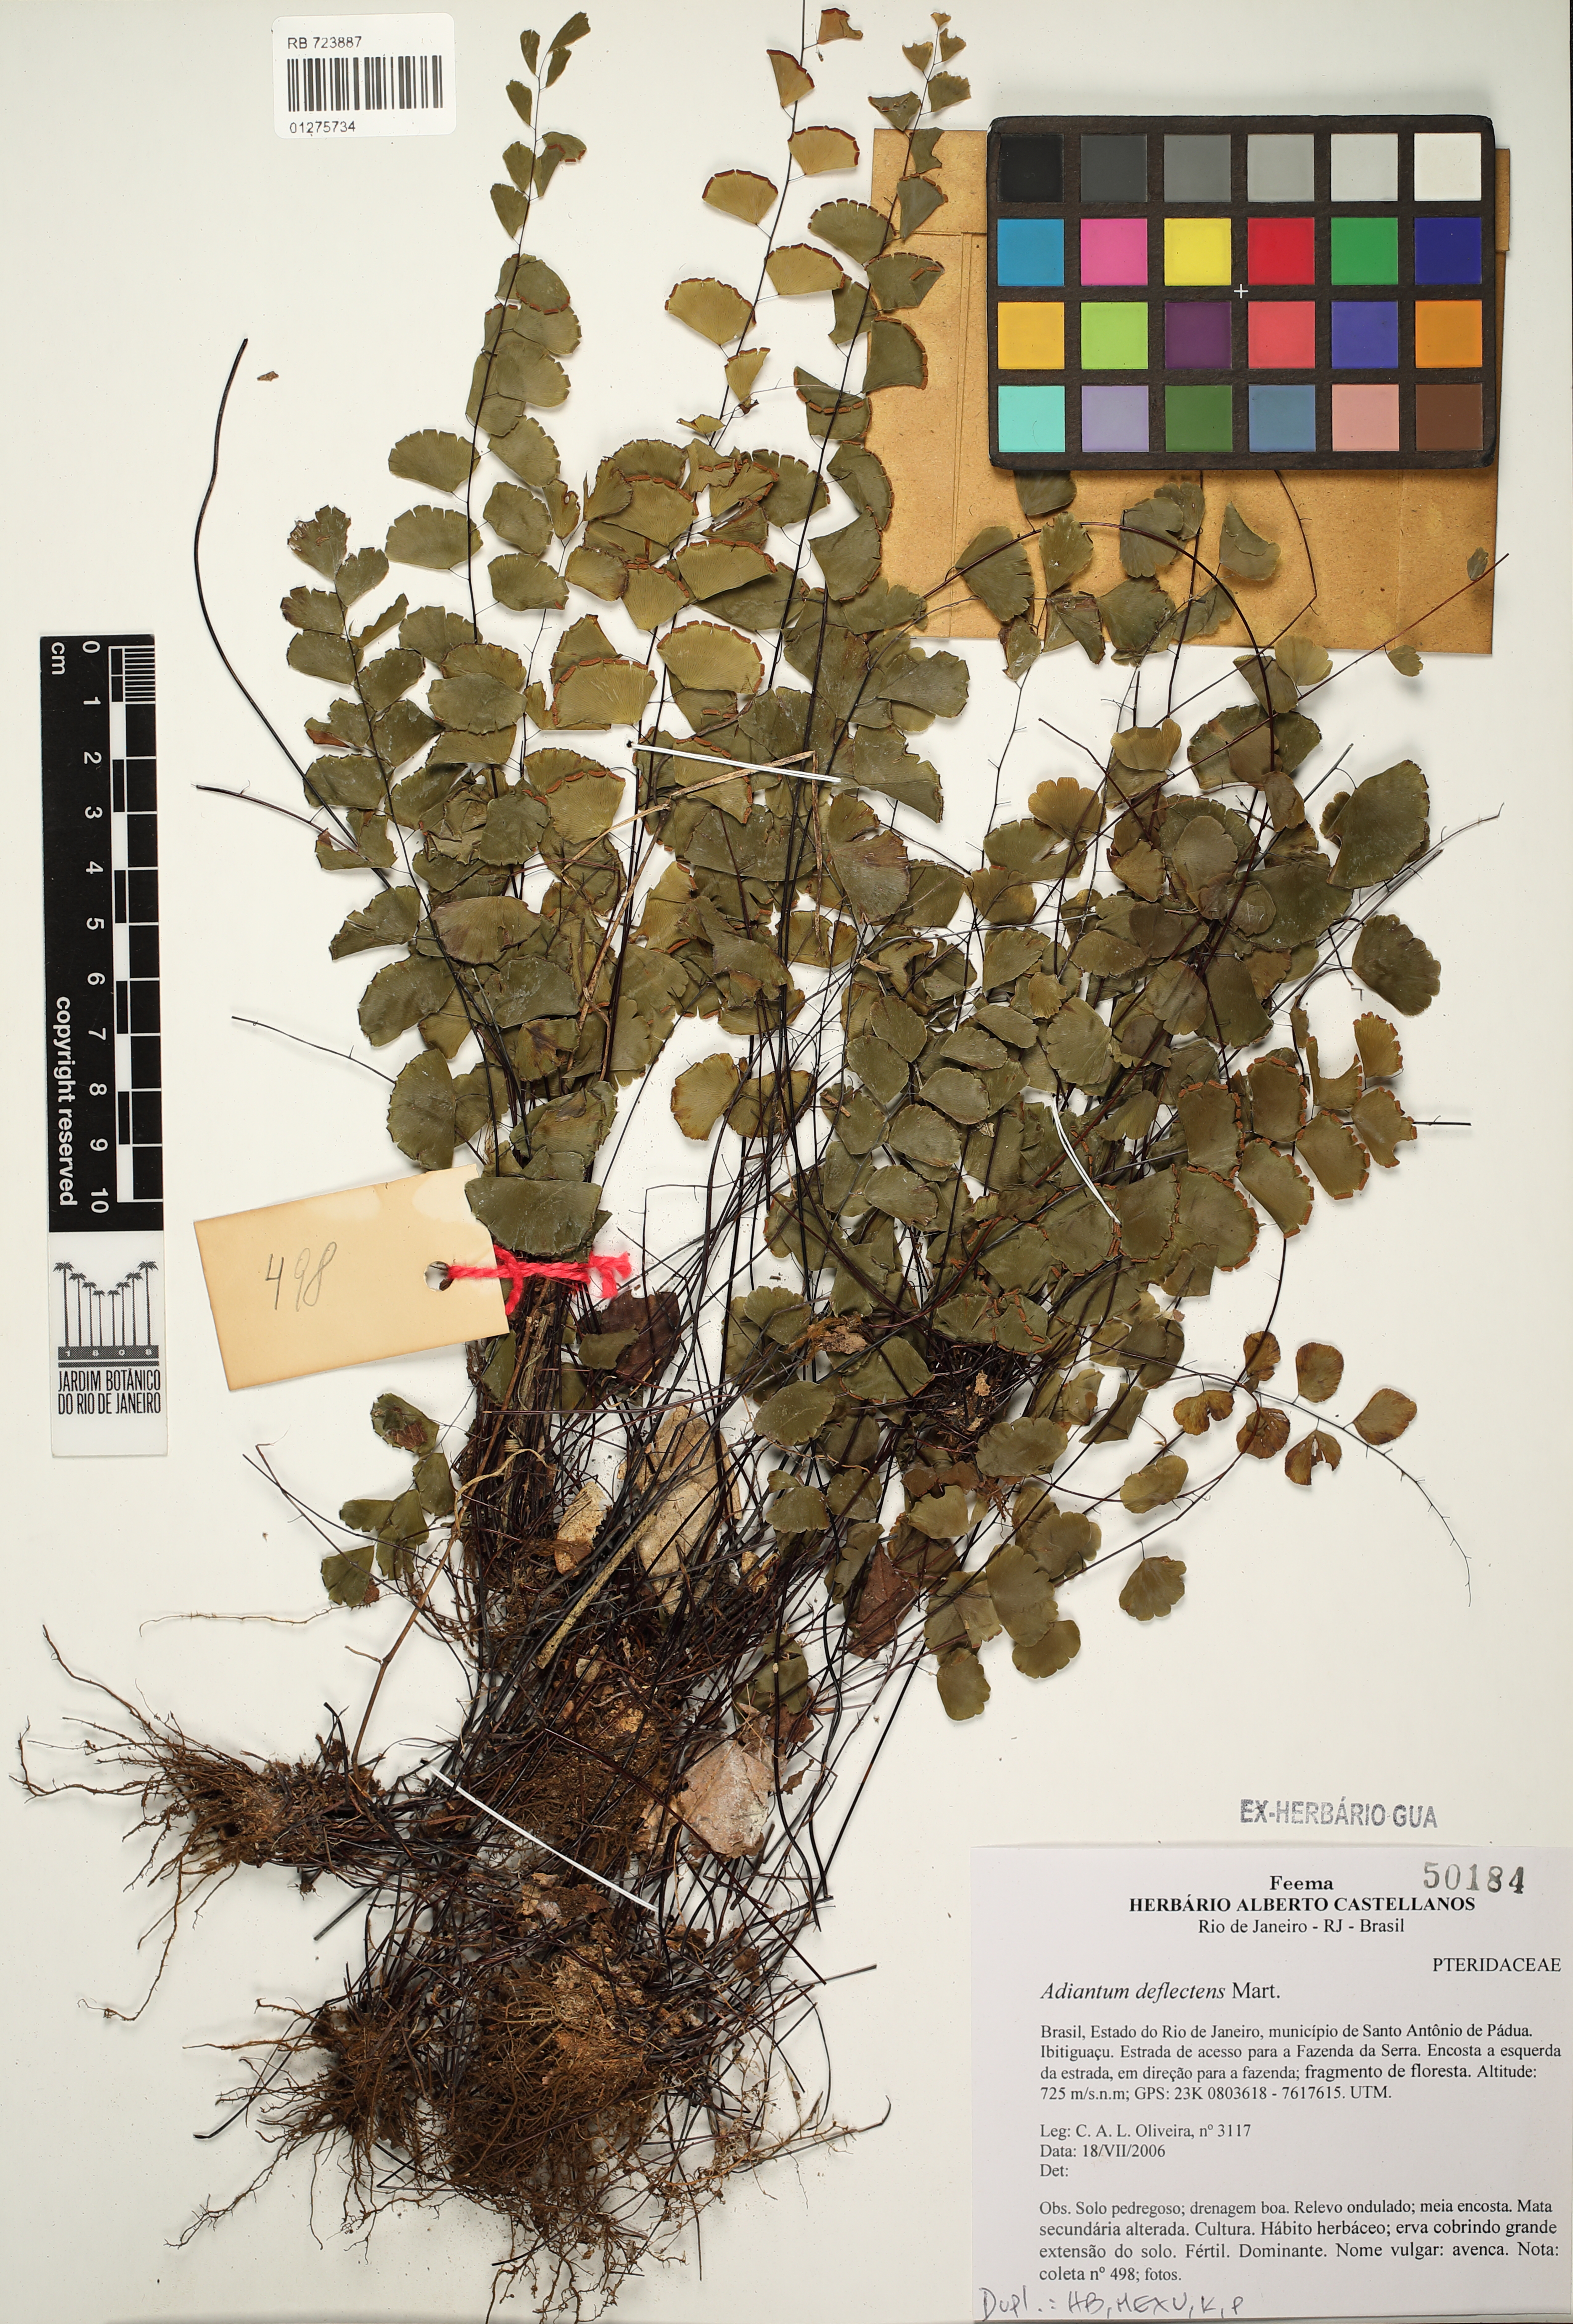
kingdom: Plantae
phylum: Tracheophyta
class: Polypodiopsida
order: Polypodiales
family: Pteridaceae
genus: Adiantum
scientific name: Adiantum deflectens
